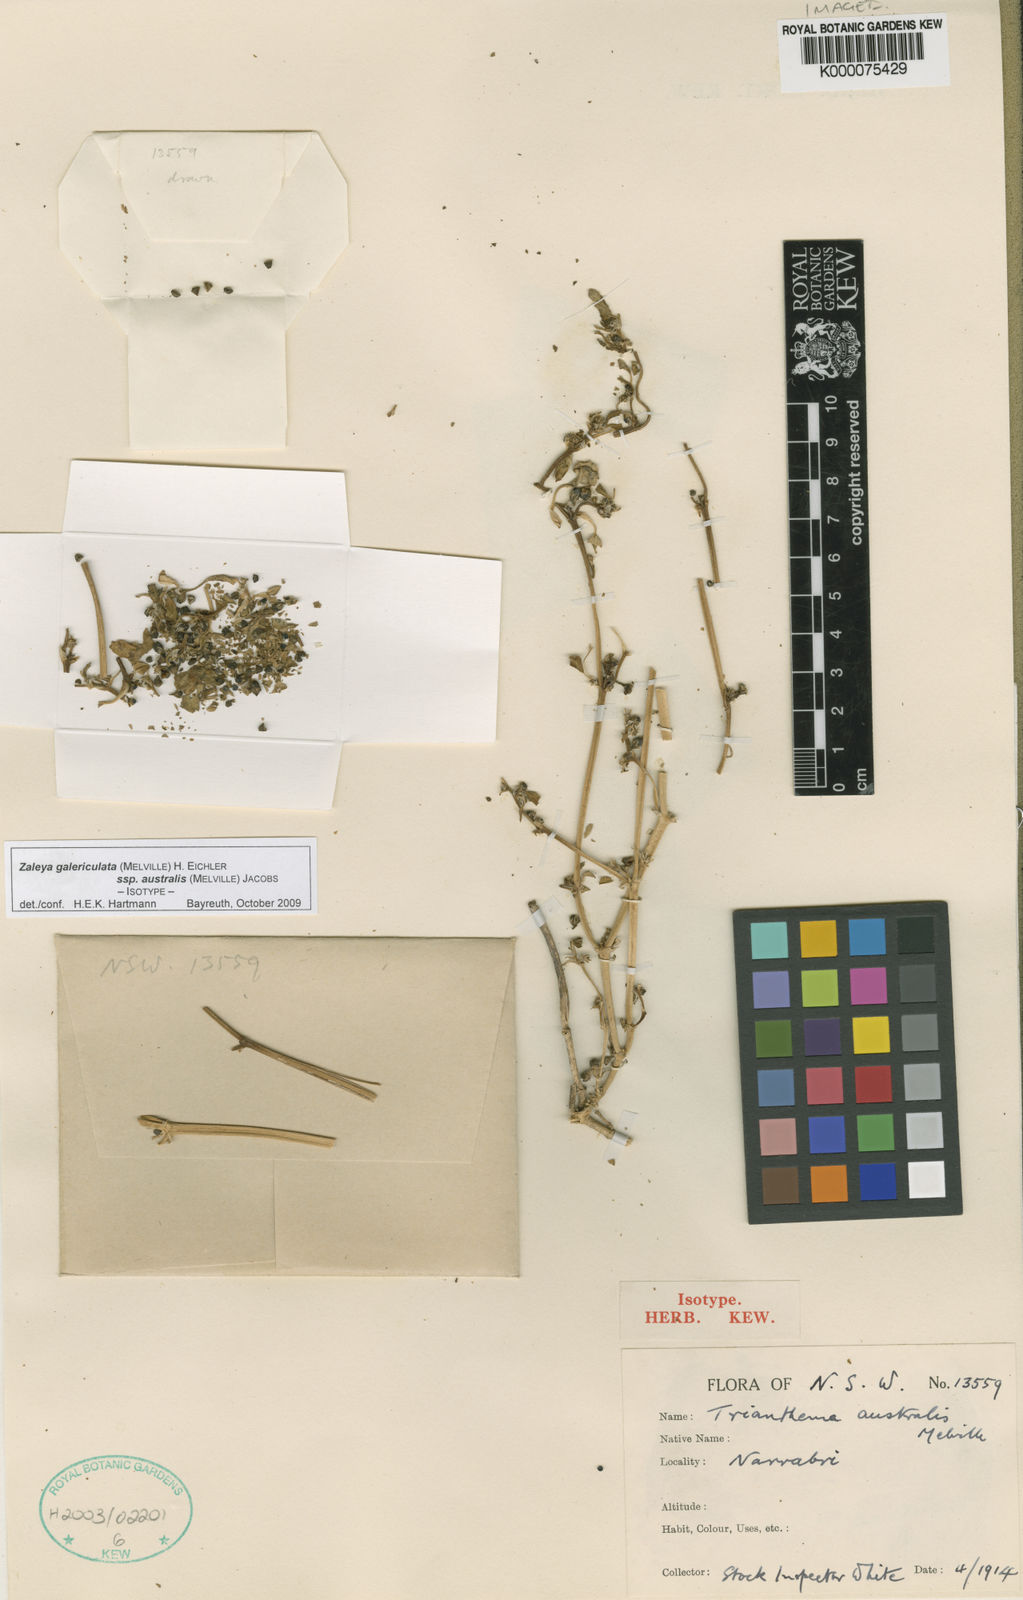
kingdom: Plantae
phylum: Tracheophyta
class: Magnoliopsida
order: Caryophyllales
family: Aizoaceae
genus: Trianthema
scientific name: Trianthema
